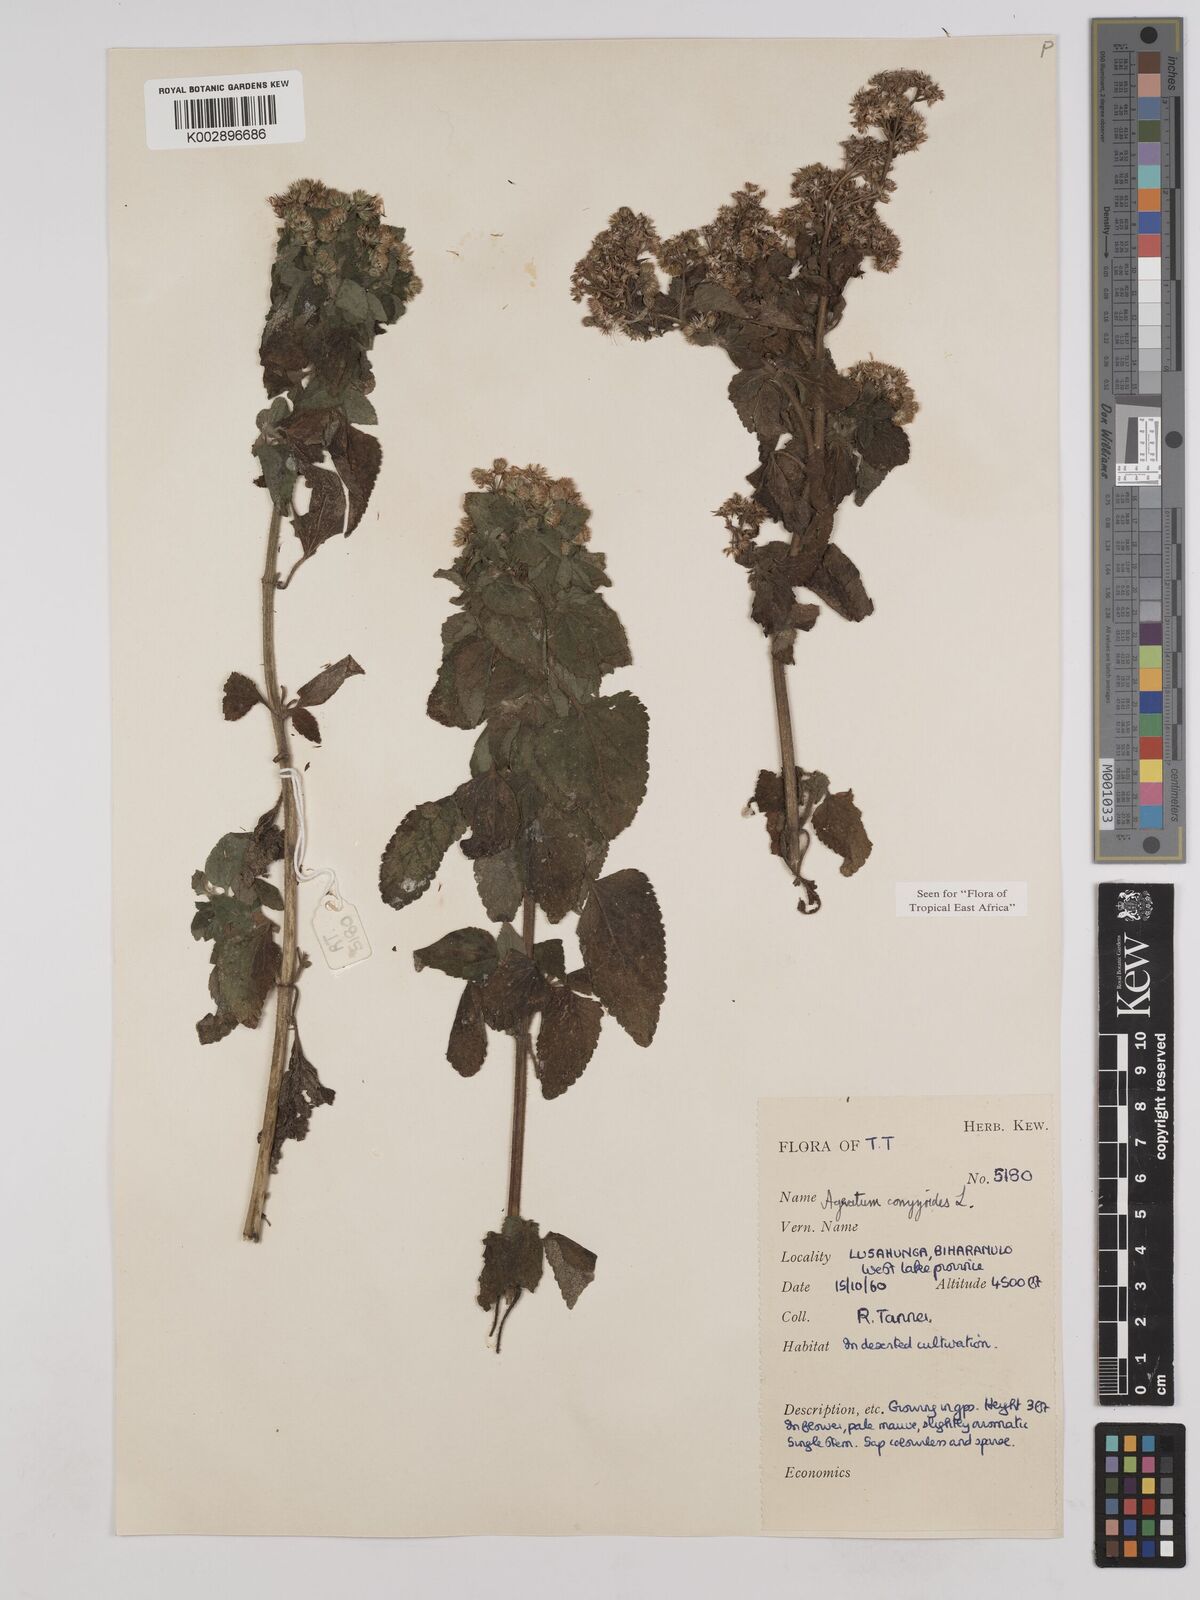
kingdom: Plantae
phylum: Tracheophyta
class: Magnoliopsida
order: Asterales
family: Asteraceae
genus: Ageratum
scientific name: Ageratum conyzoides
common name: Tropical whiteweed
